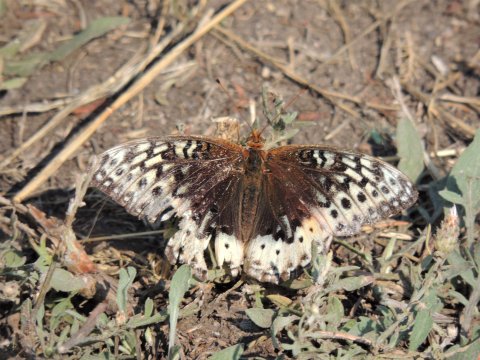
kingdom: Animalia
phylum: Arthropoda
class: Insecta
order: Lepidoptera
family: Nymphalidae
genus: Speyeria
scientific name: Speyeria cybele
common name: Great Spangled Fritillary
